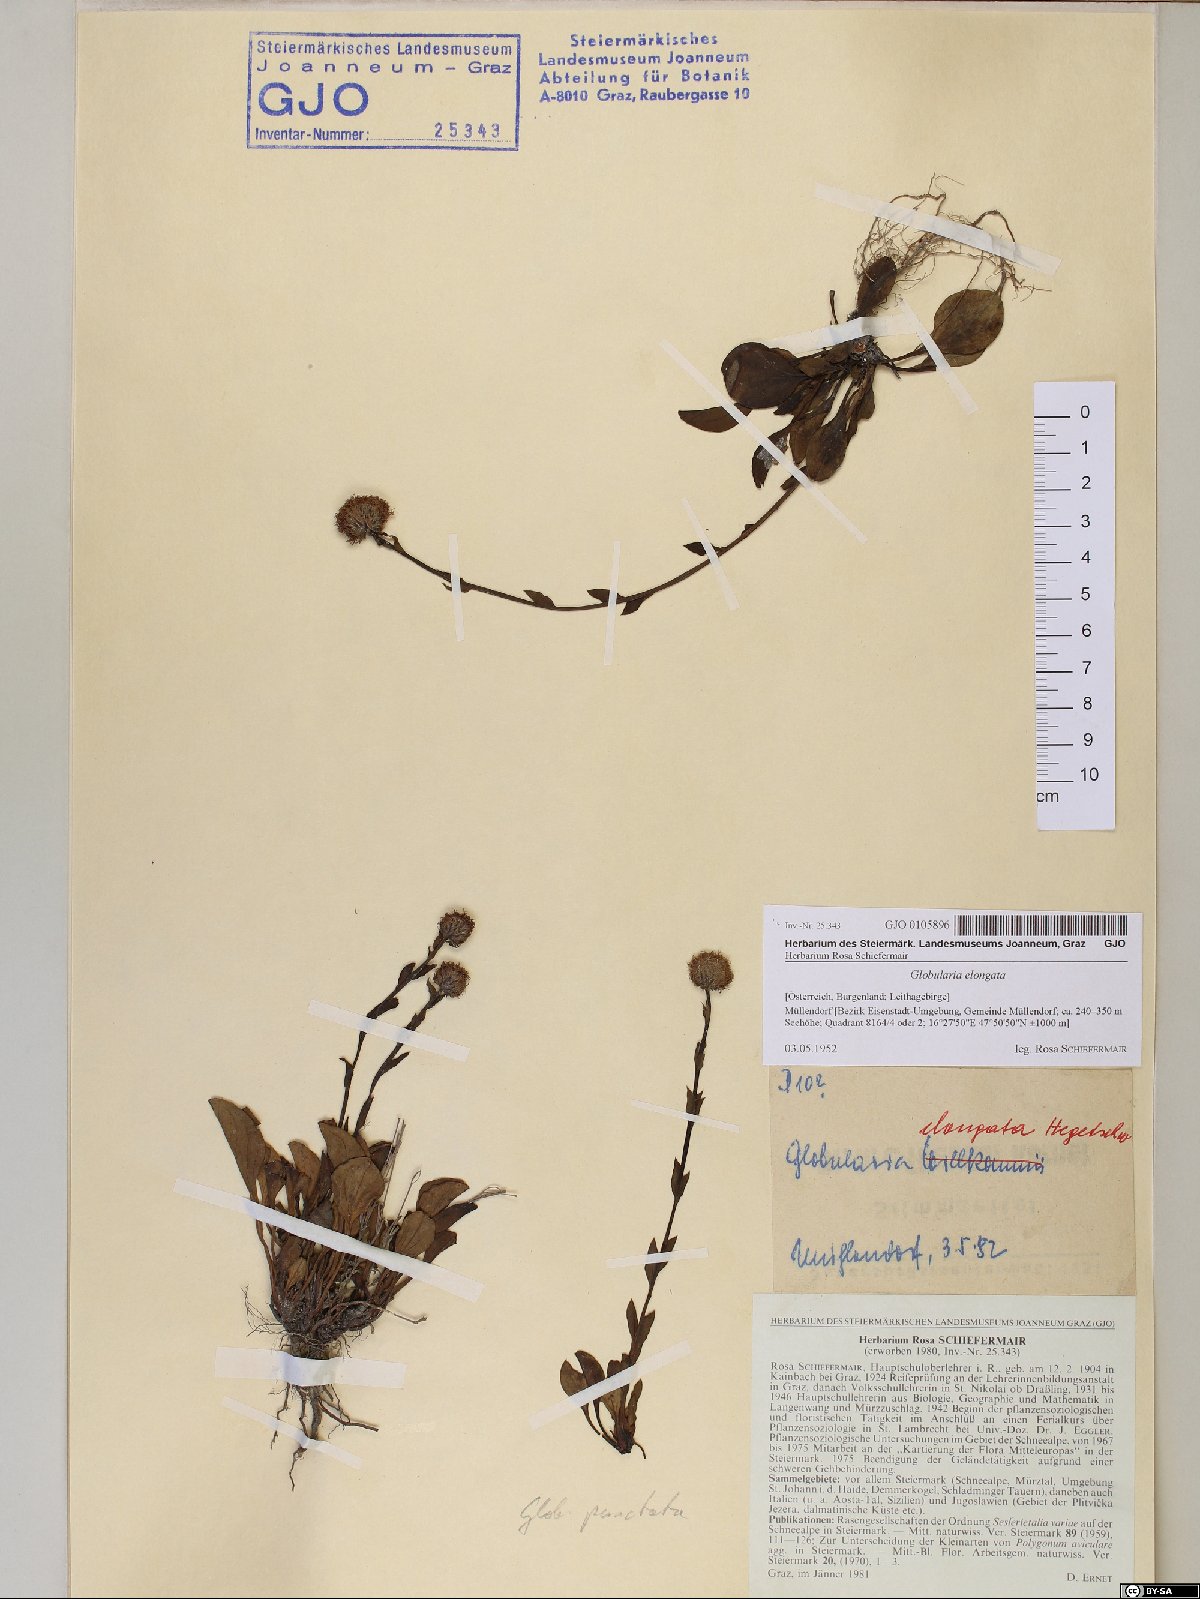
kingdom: Plantae
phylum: Tracheophyta
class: Magnoliopsida
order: Lamiales
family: Plantaginaceae
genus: Globularia
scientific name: Globularia bisnagarica
